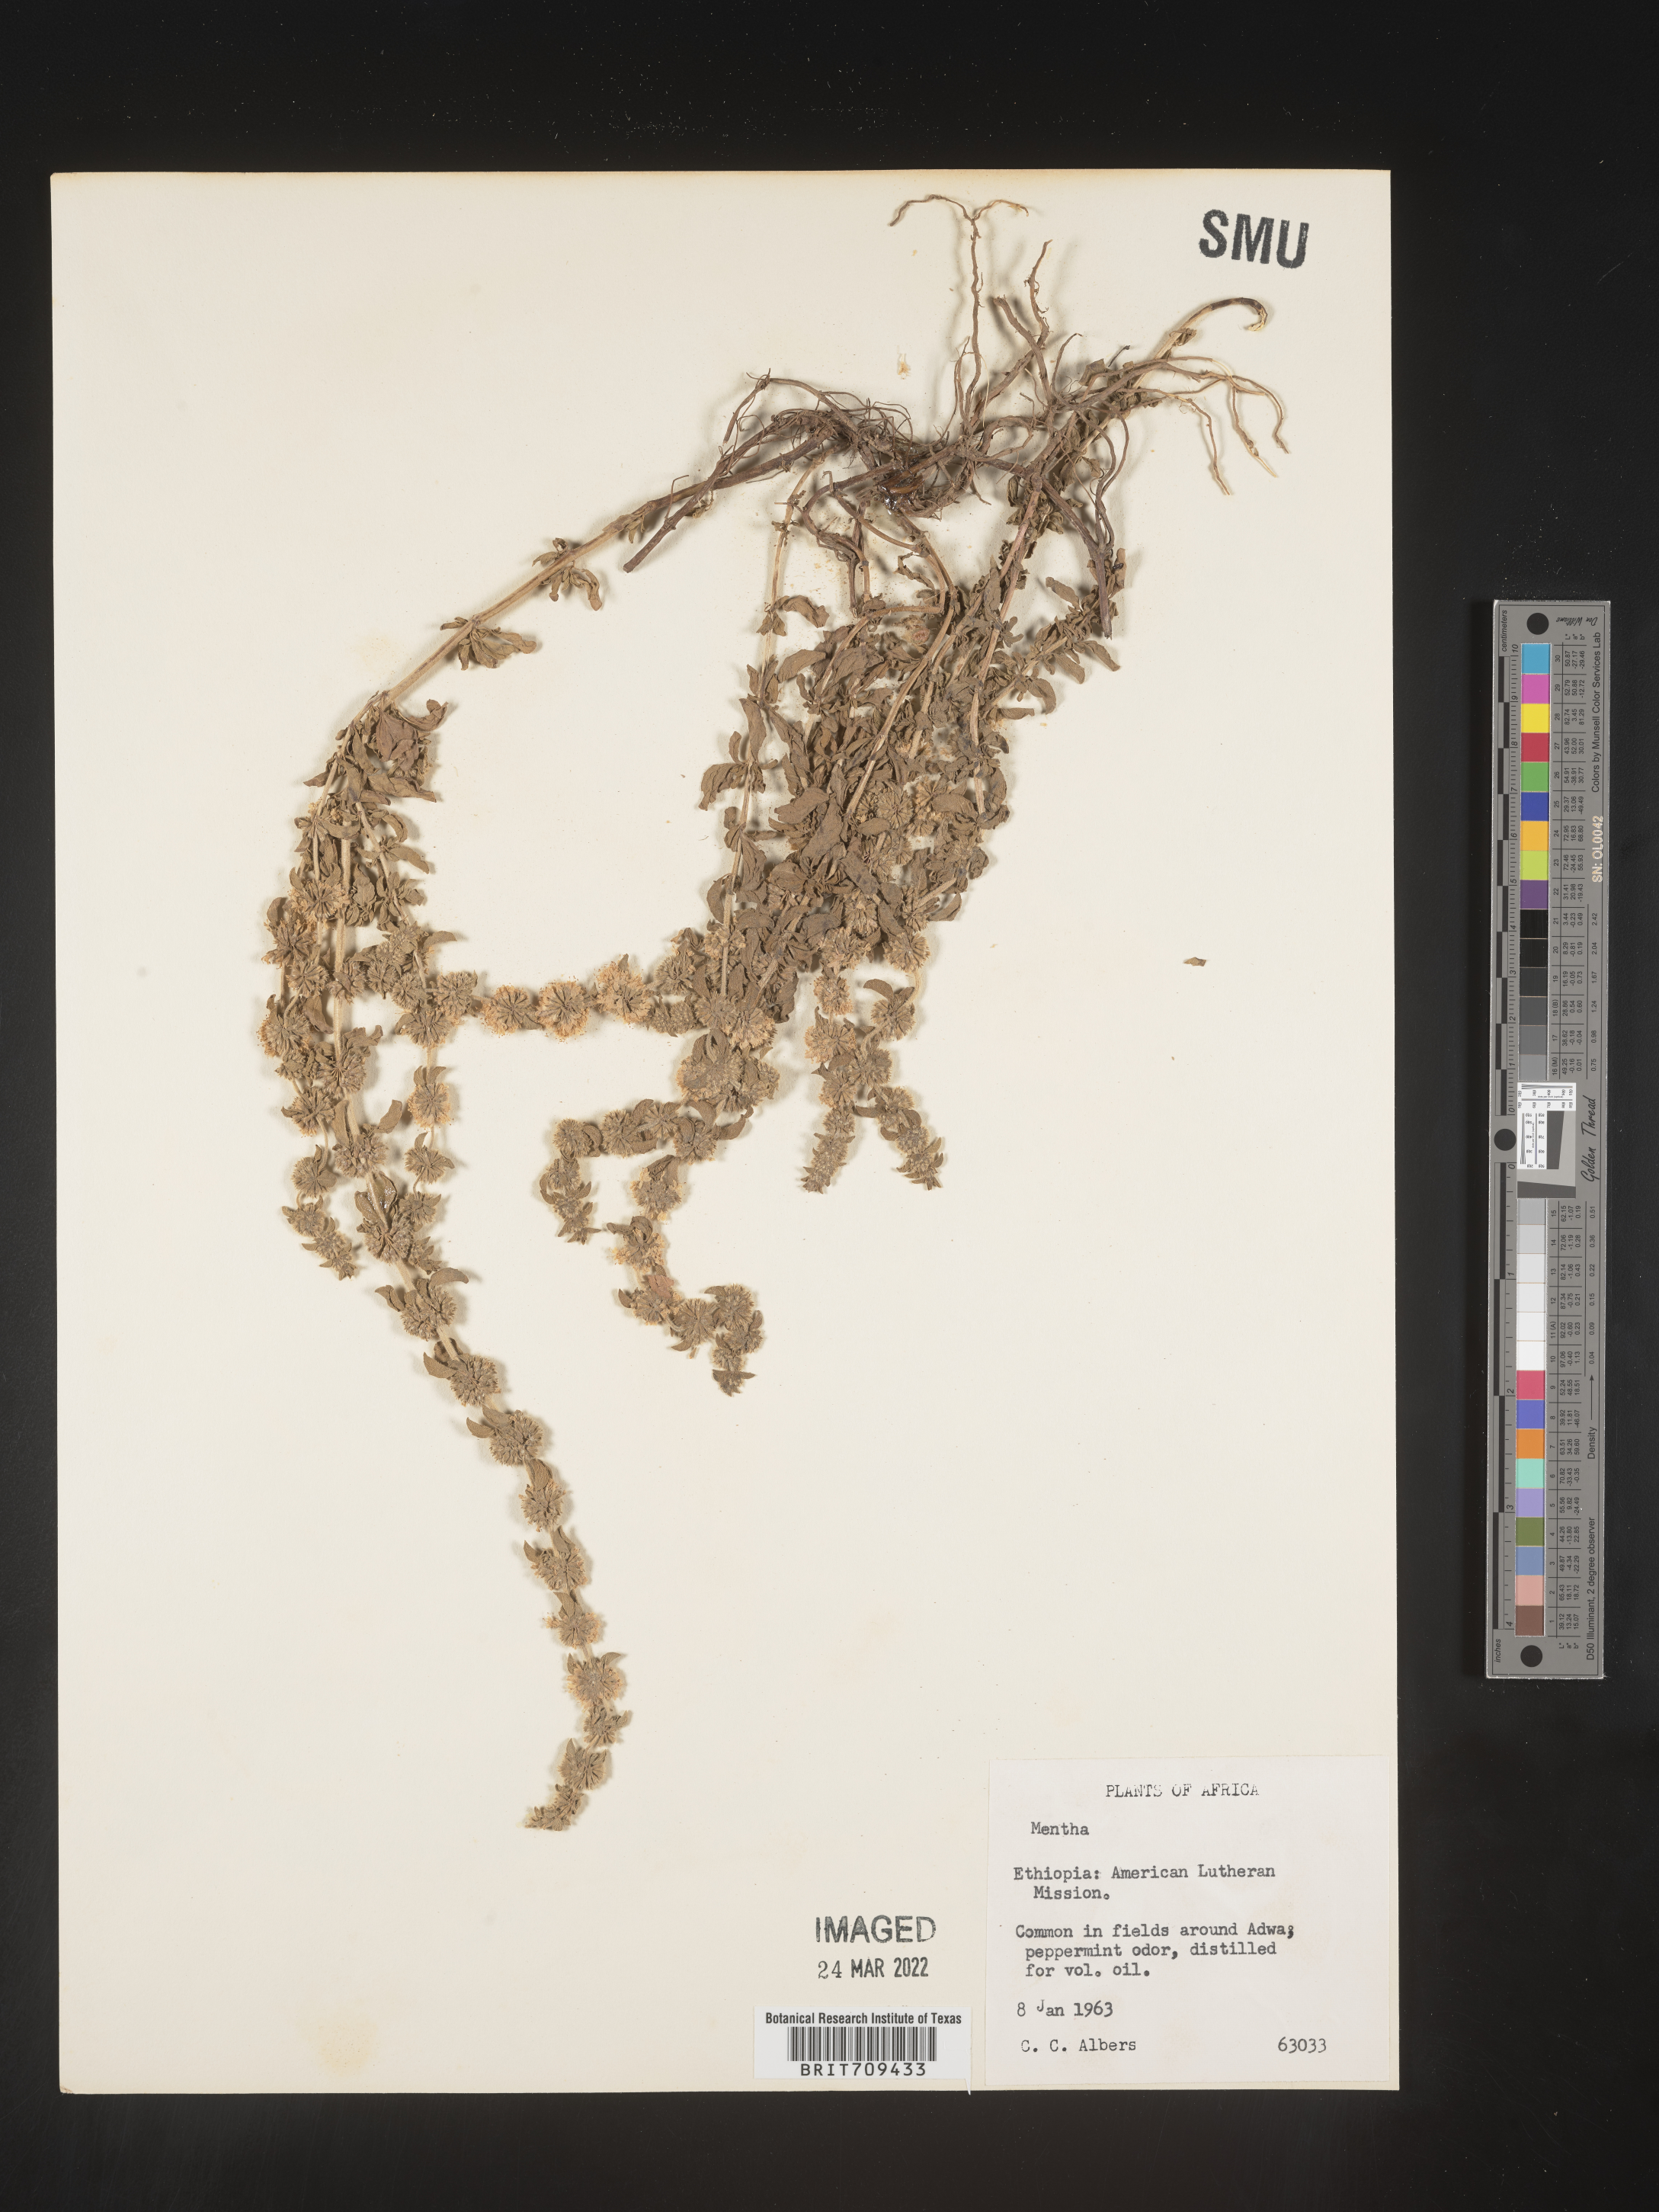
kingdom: Plantae
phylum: Tracheophyta
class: Magnoliopsida
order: Lamiales
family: Lamiaceae
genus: Mentha
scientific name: Mentha
